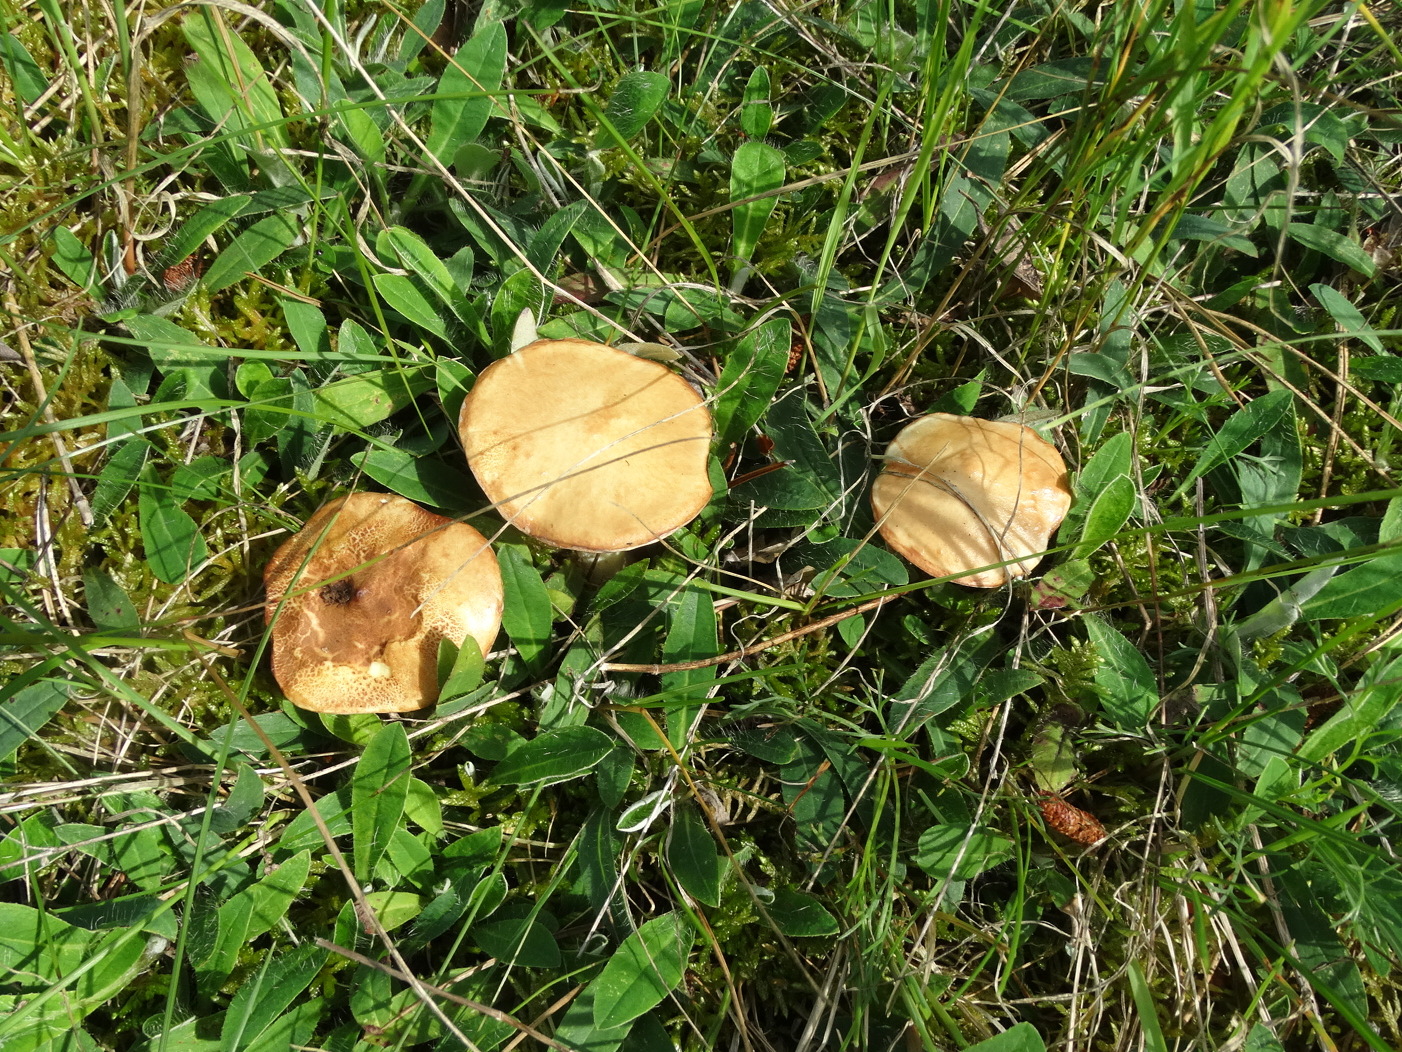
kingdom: Fungi
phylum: Basidiomycota
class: Agaricomycetes
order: Boletales
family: Suillaceae
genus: Suillus
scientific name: Suillus granulatus
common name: kornet slimrørhat
